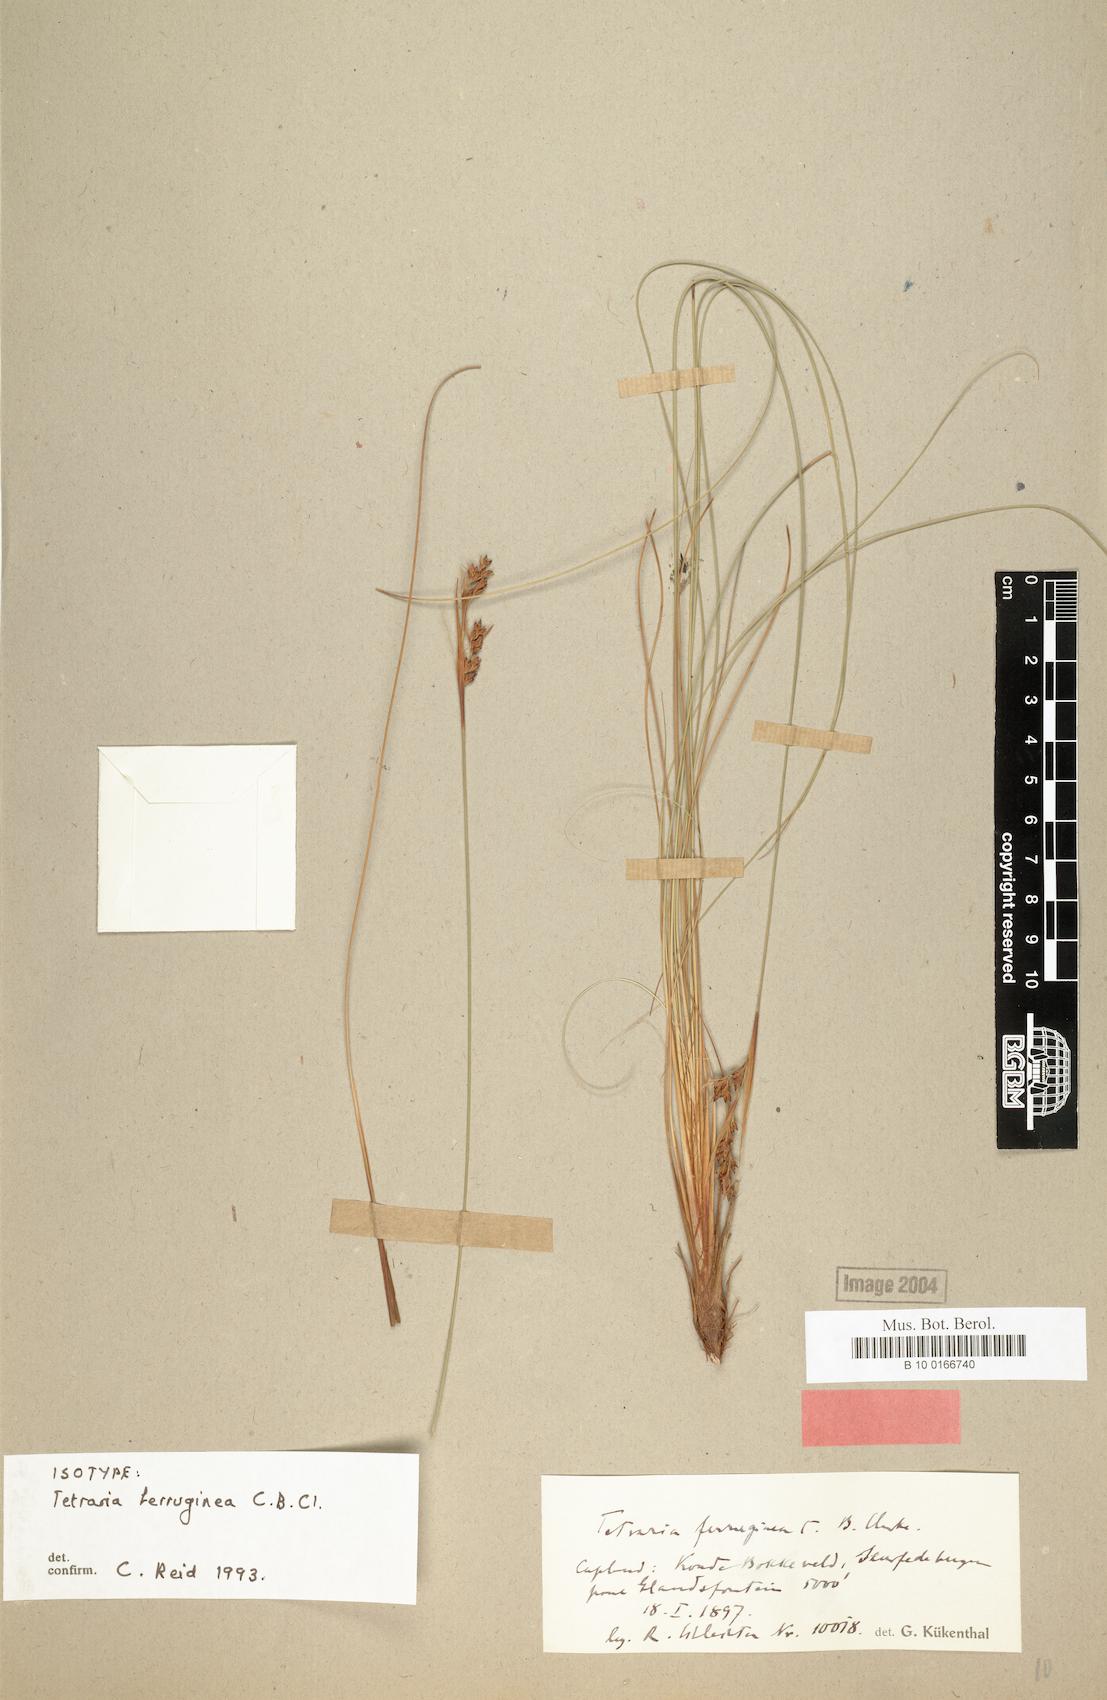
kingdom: Plantae
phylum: Tracheophyta
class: Liliopsida
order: Poales
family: Cyperaceae
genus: Tetraria
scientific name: Tetraria ferruginea
